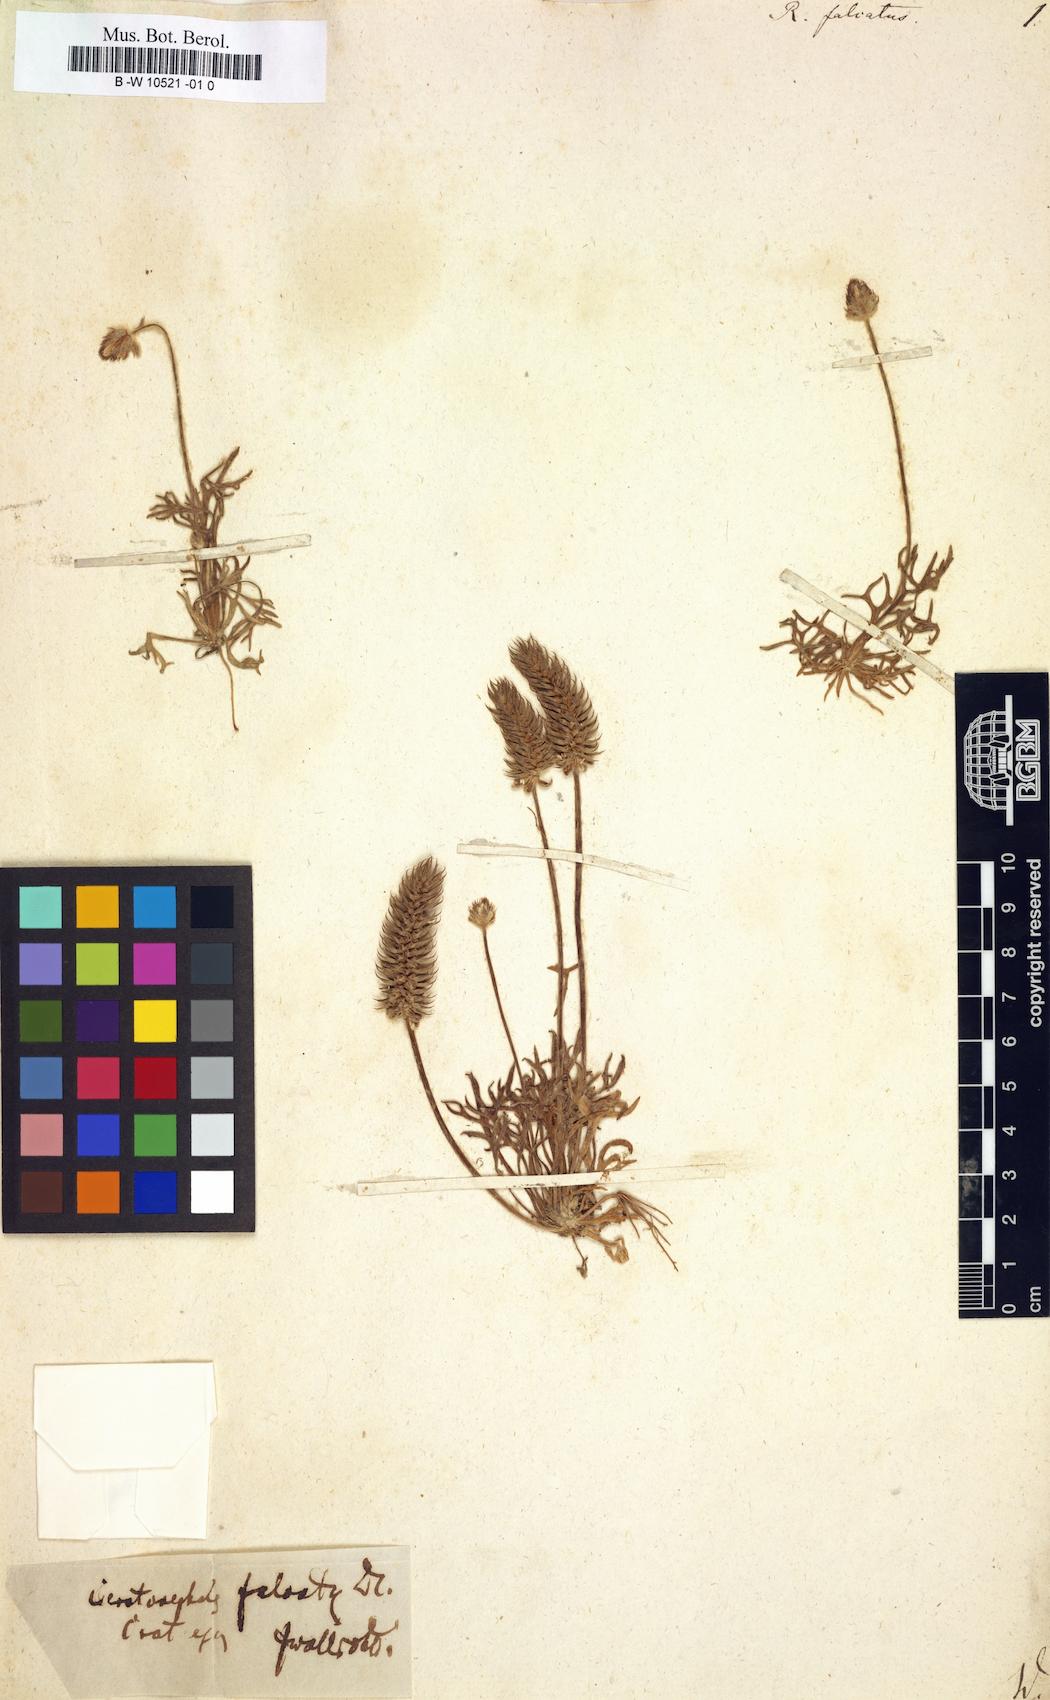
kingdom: Plantae
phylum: Tracheophyta
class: Magnoliopsida
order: Ranunculales
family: Ranunculaceae
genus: Ceratocephala
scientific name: Ceratocephala falcata
